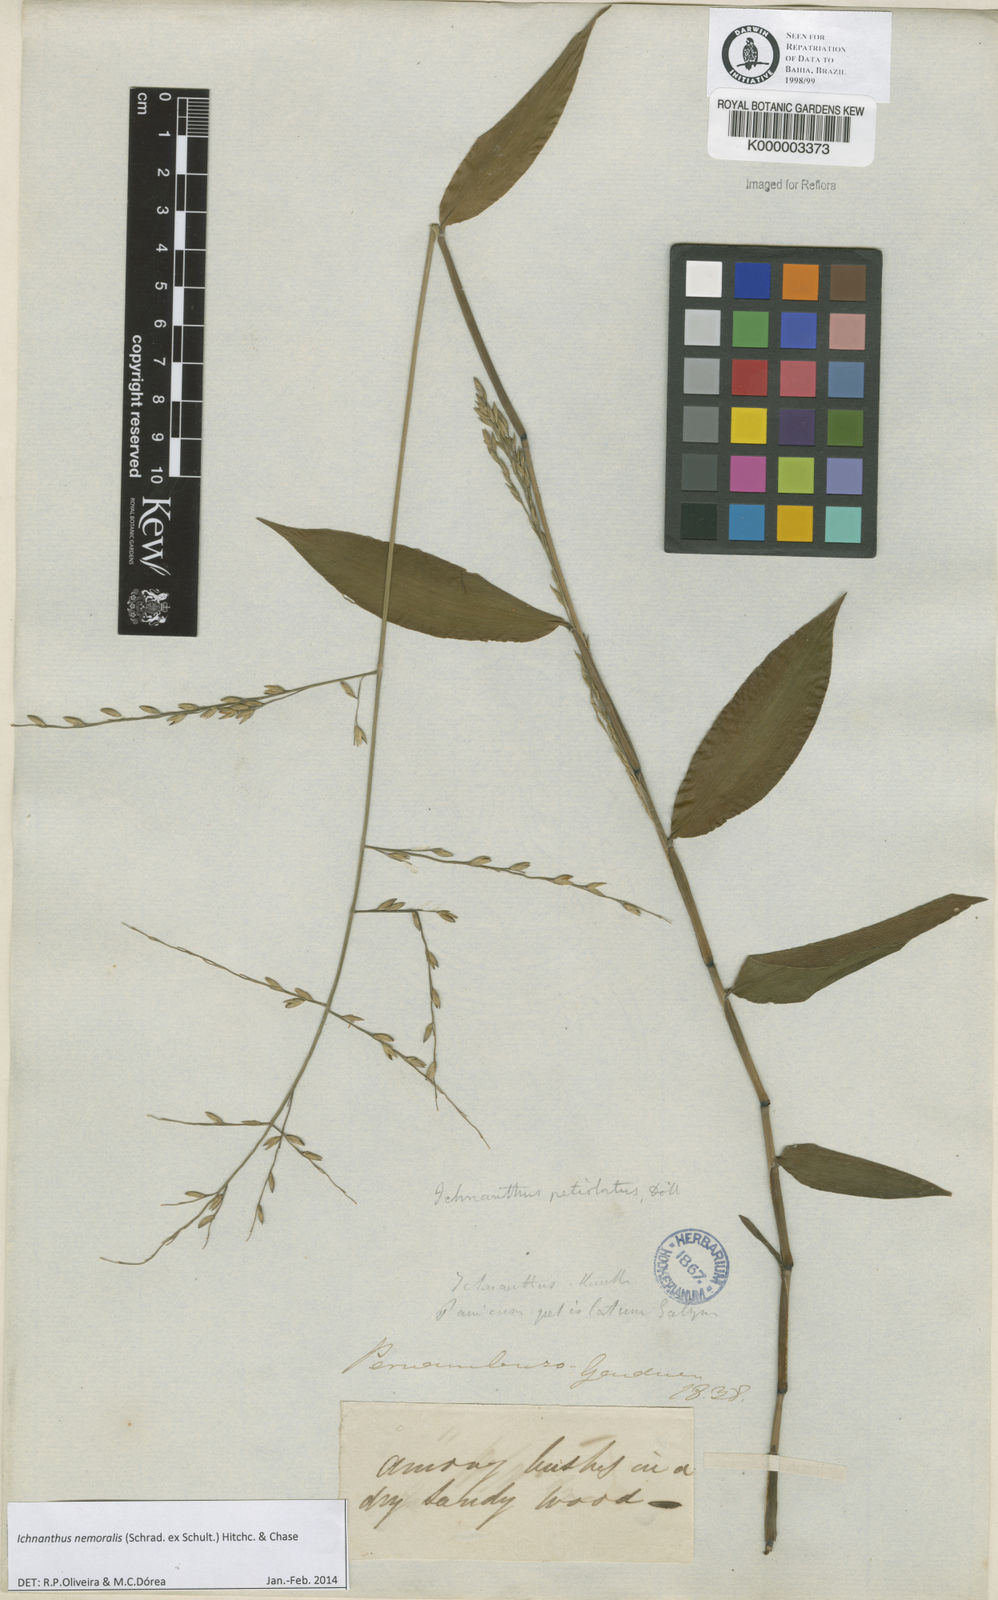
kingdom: Plantae
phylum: Tracheophyta
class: Liliopsida
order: Poales
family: Poaceae
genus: Ichnanthus
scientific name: Ichnanthus nemoralis
